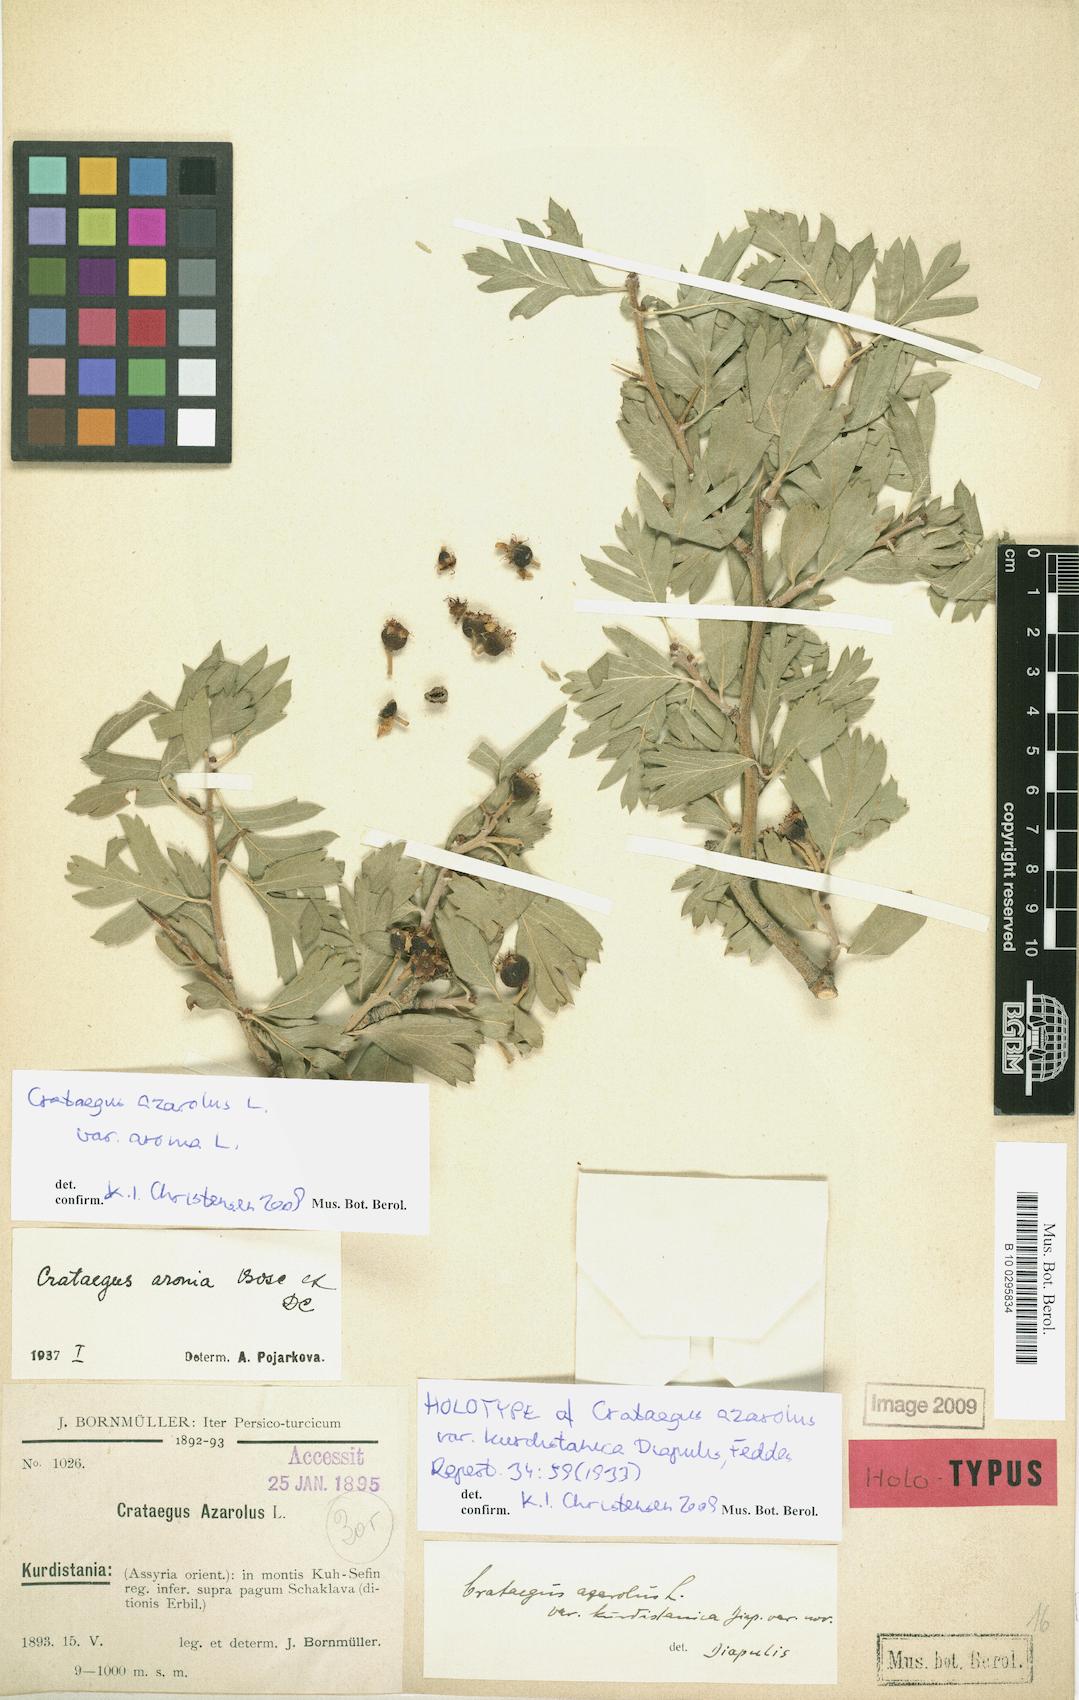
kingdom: Plantae
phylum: Tracheophyta
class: Magnoliopsida
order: Rosales
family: Rosaceae
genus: Crataegus
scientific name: Crataegus azarolus
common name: Azarole
